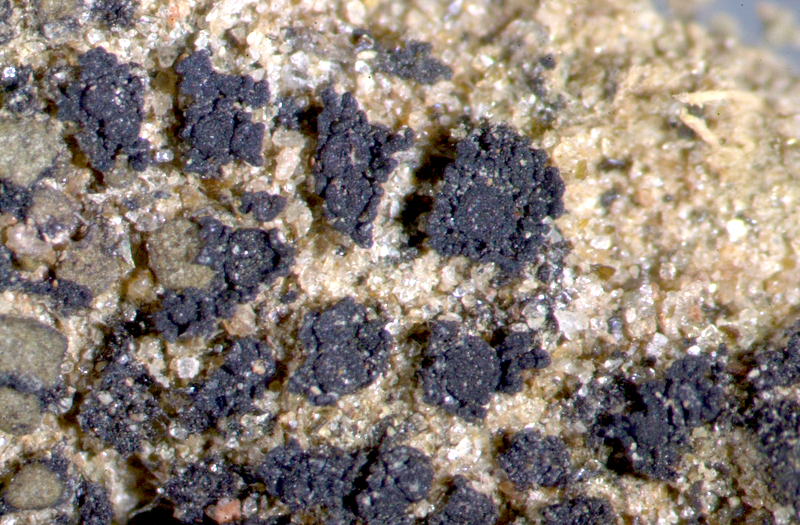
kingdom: Fungi
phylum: Ascomycota
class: Lichinomycetes
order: Lichinales
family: Lichinaceae
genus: Heppia
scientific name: Heppia despreauxii
